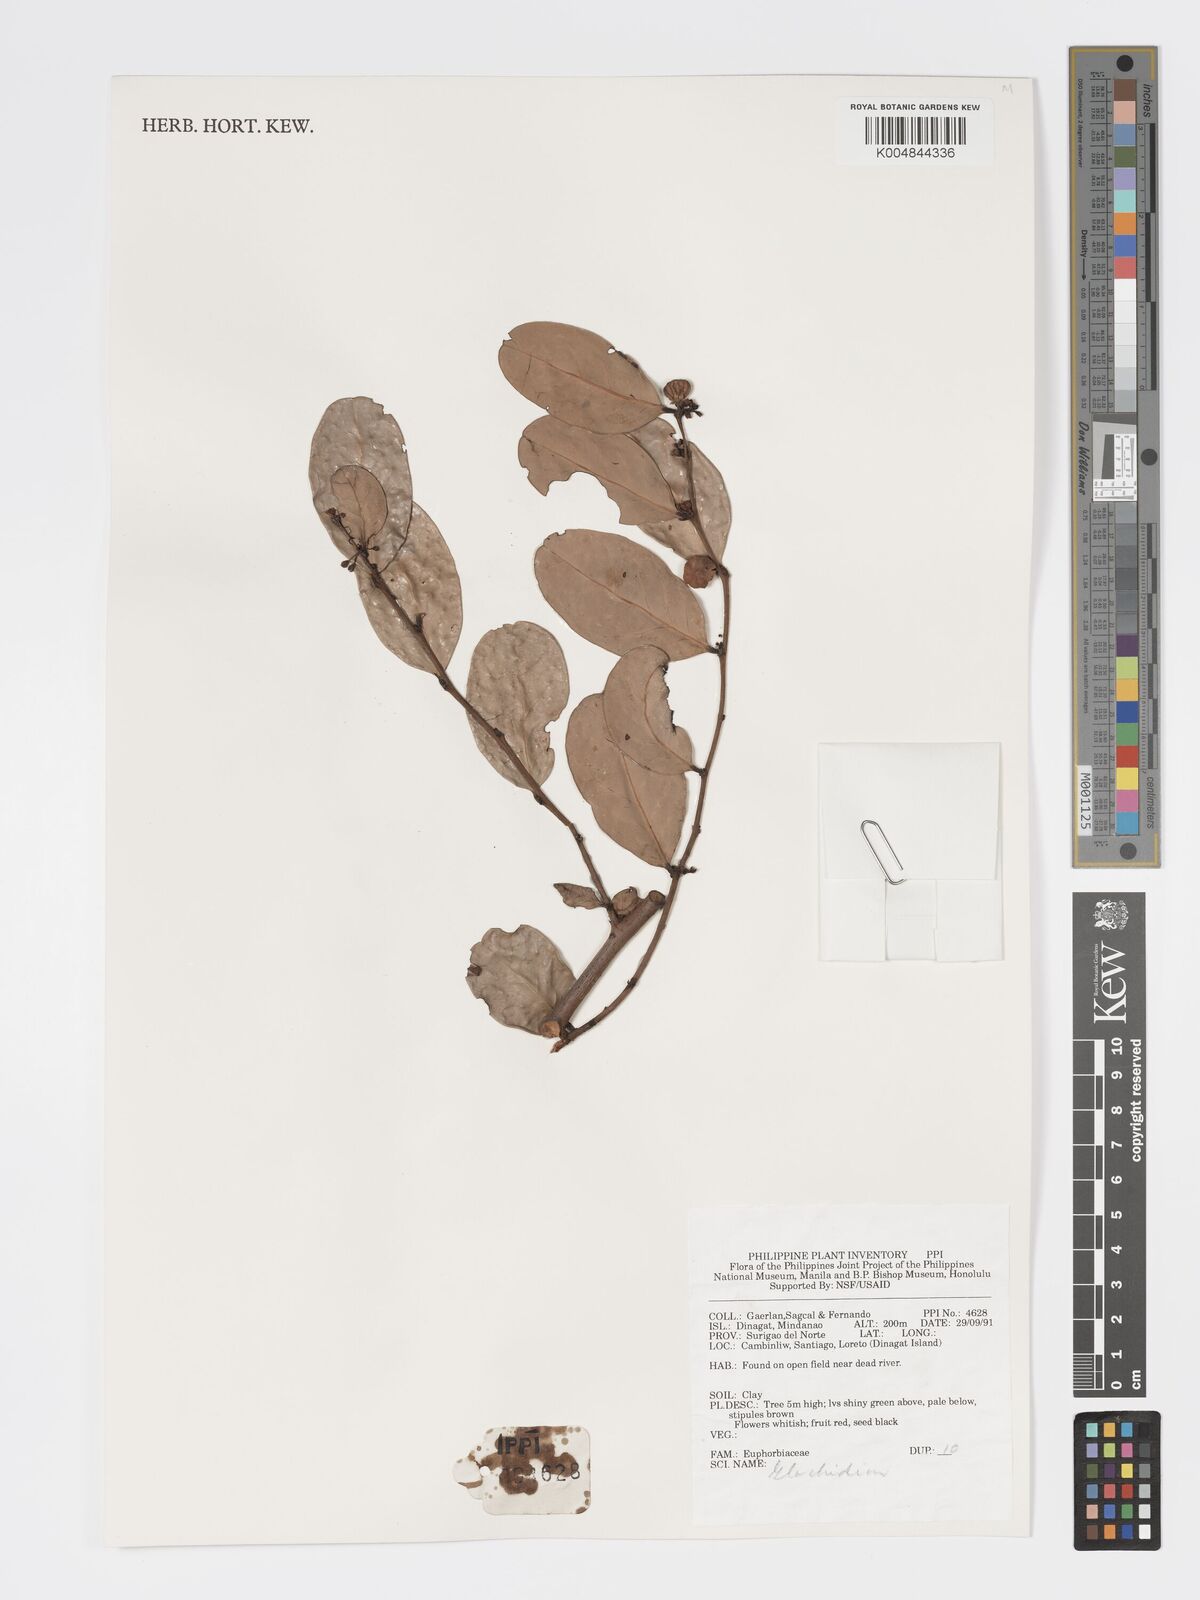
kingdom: Plantae
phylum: Tracheophyta
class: Magnoliopsida
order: Malpighiales
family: Phyllanthaceae
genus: Glochidion
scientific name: Glochidion
